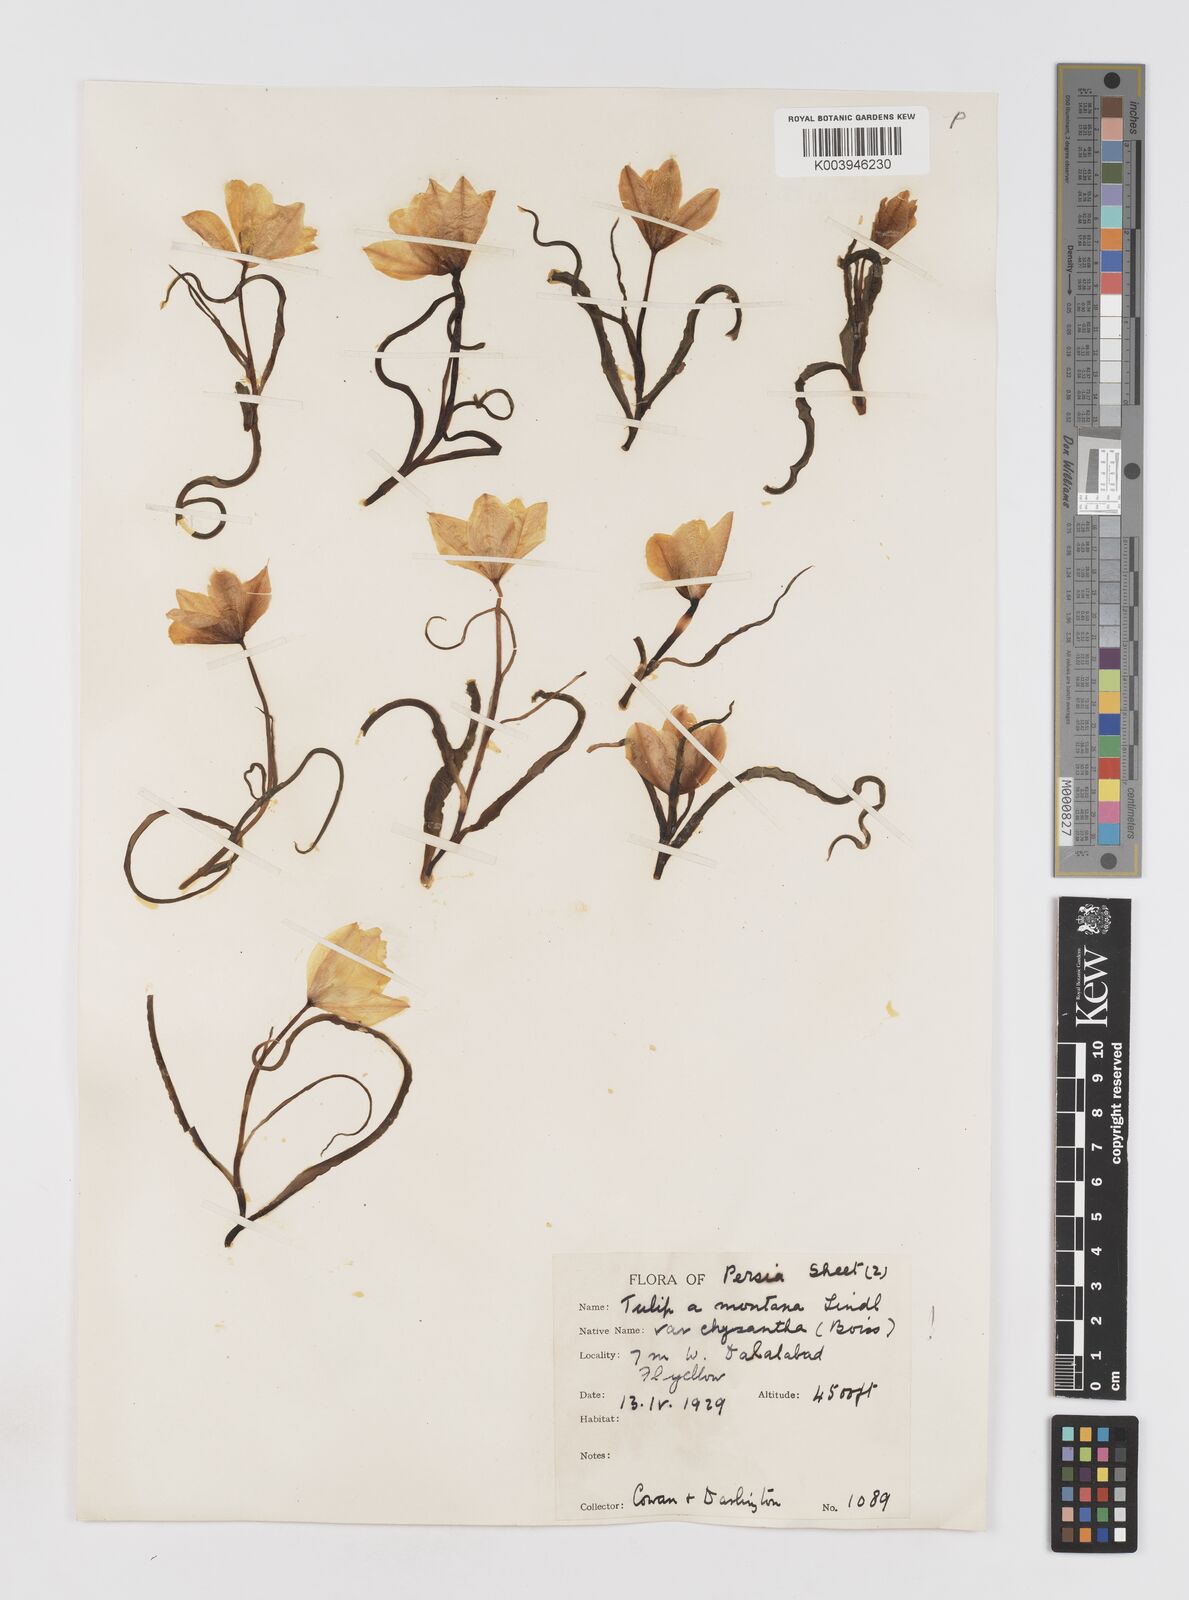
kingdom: Plantae
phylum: Tracheophyta
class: Liliopsida
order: Liliales
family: Liliaceae
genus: Tulipa
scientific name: Tulipa montana
